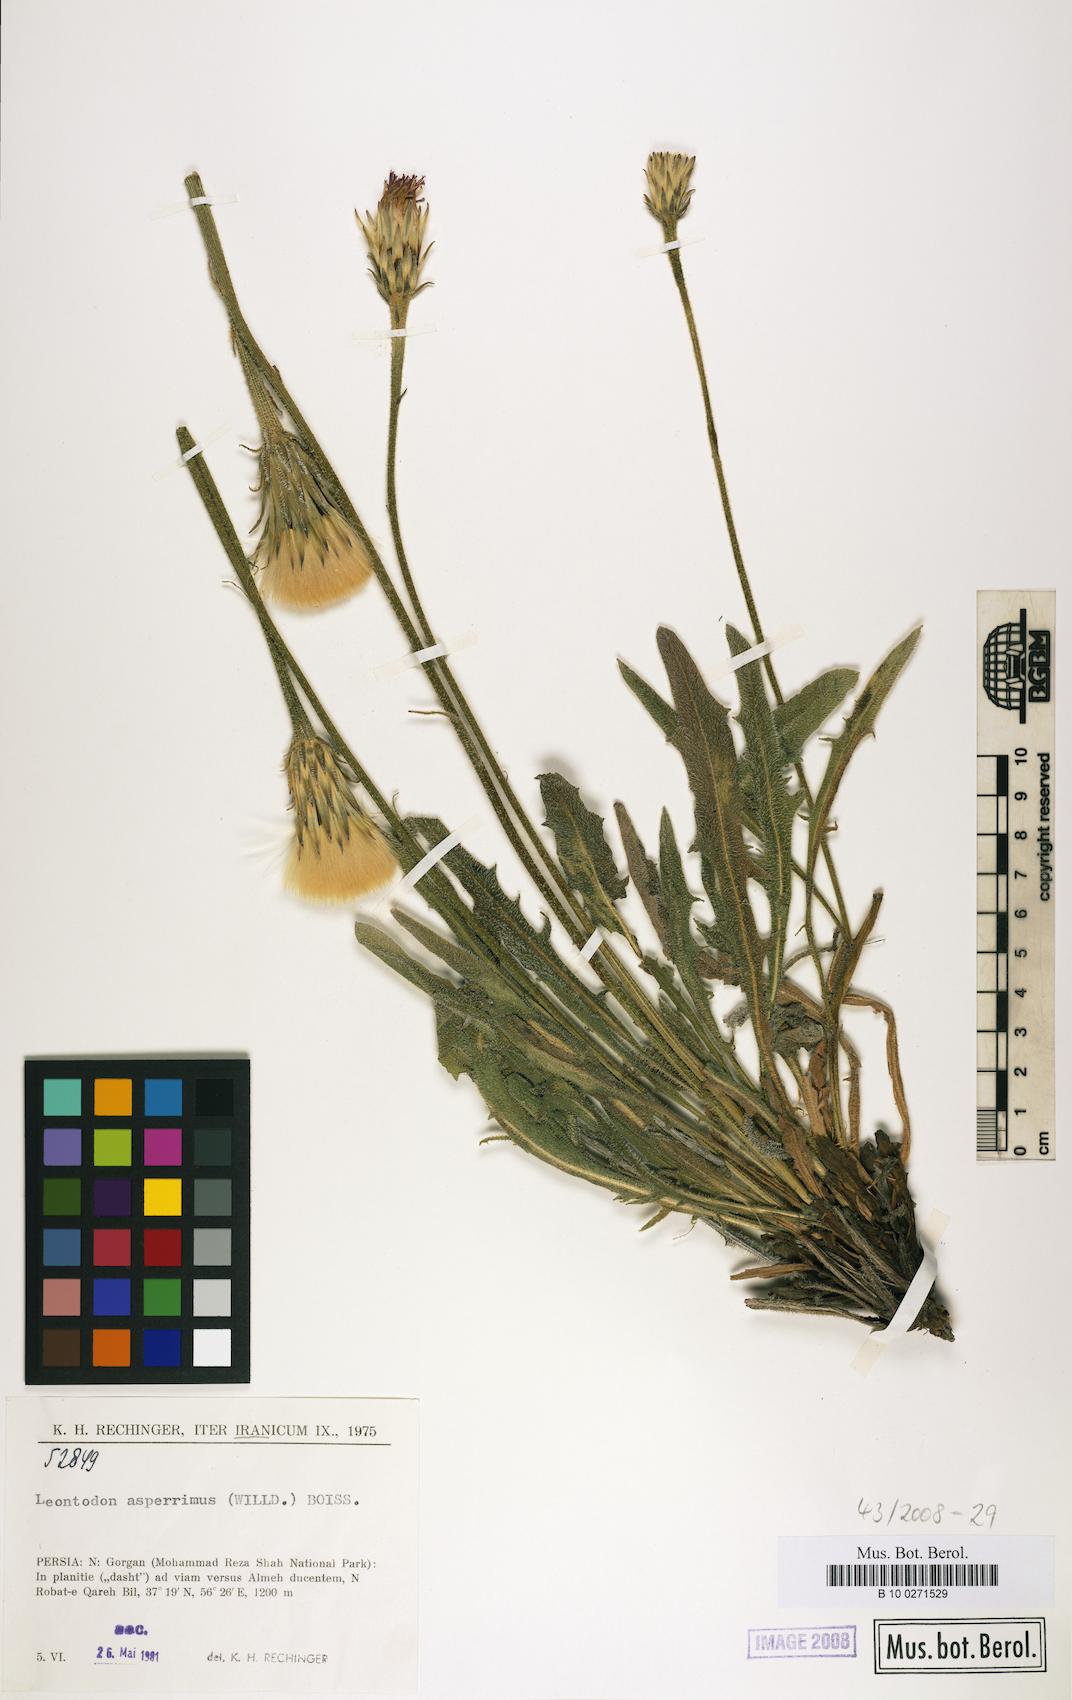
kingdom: Plantae
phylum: Tracheophyta
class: Magnoliopsida
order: Asterales
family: Asteraceae
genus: Leontodon
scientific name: Leontodon asperrimus
